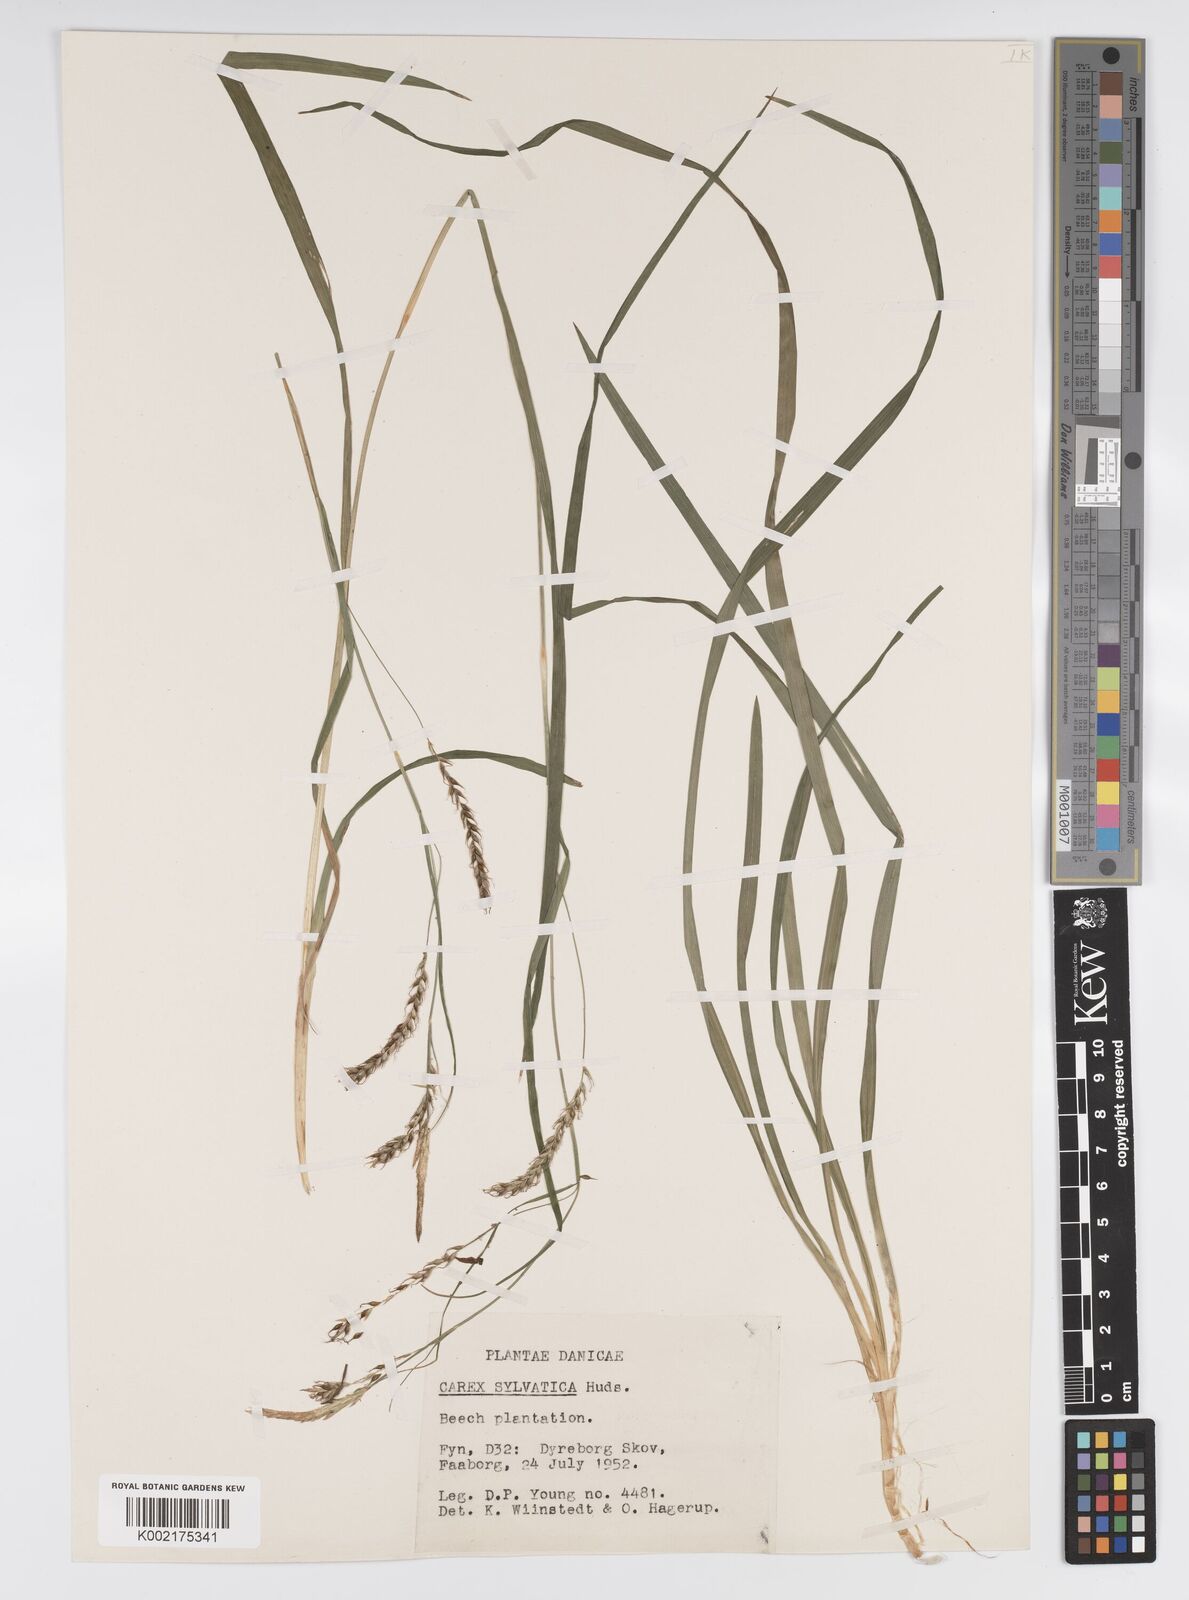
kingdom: Plantae
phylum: Tracheophyta
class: Liliopsida
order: Poales
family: Cyperaceae
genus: Carex
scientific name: Carex sylvatica
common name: Wood-sedge
